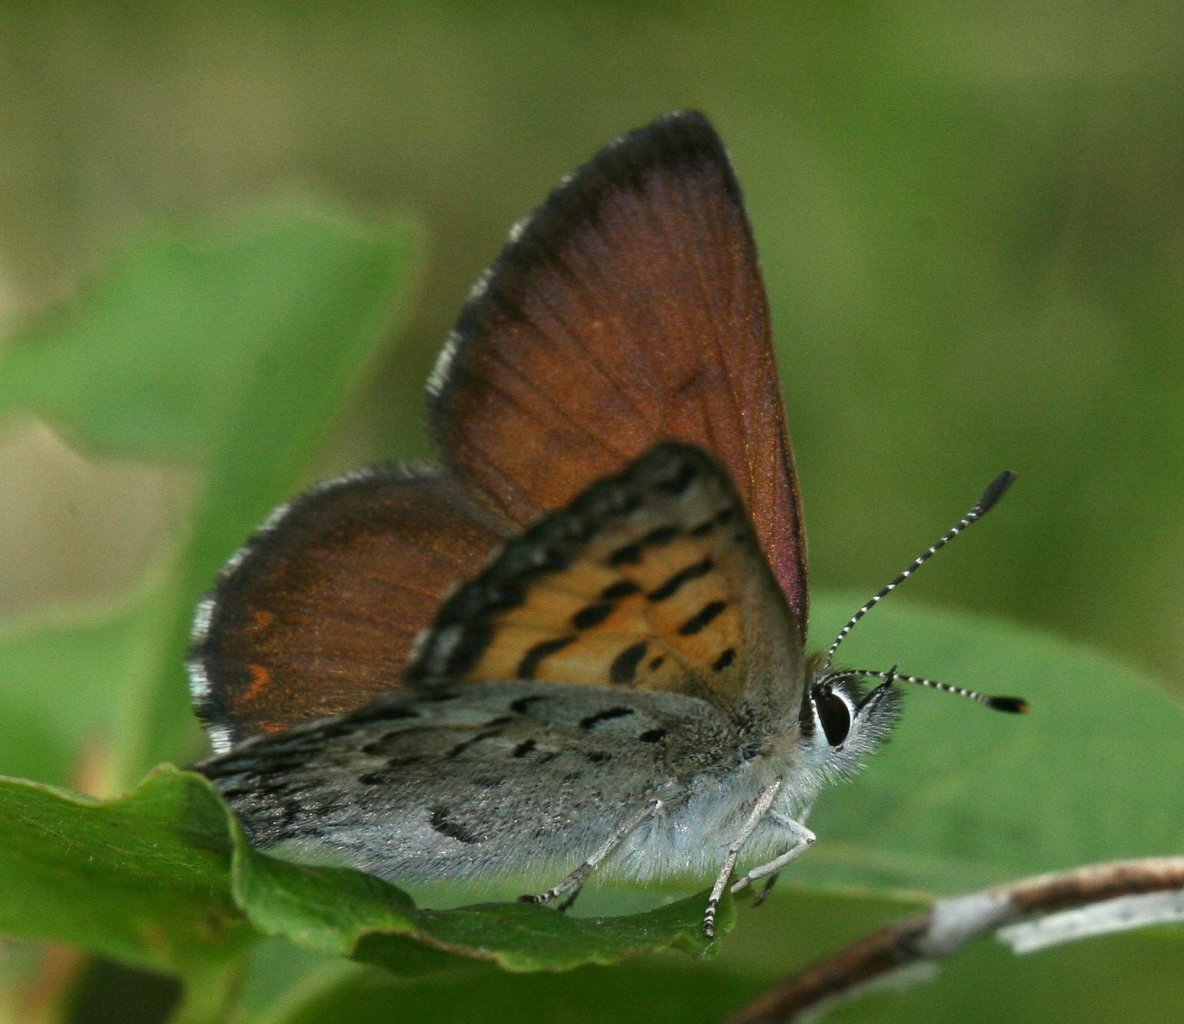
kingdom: Animalia
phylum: Arthropoda
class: Insecta
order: Lepidoptera
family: Lycaenidae
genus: Lycaena
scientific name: Lycaena mariposa
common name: Mariposa Copper
